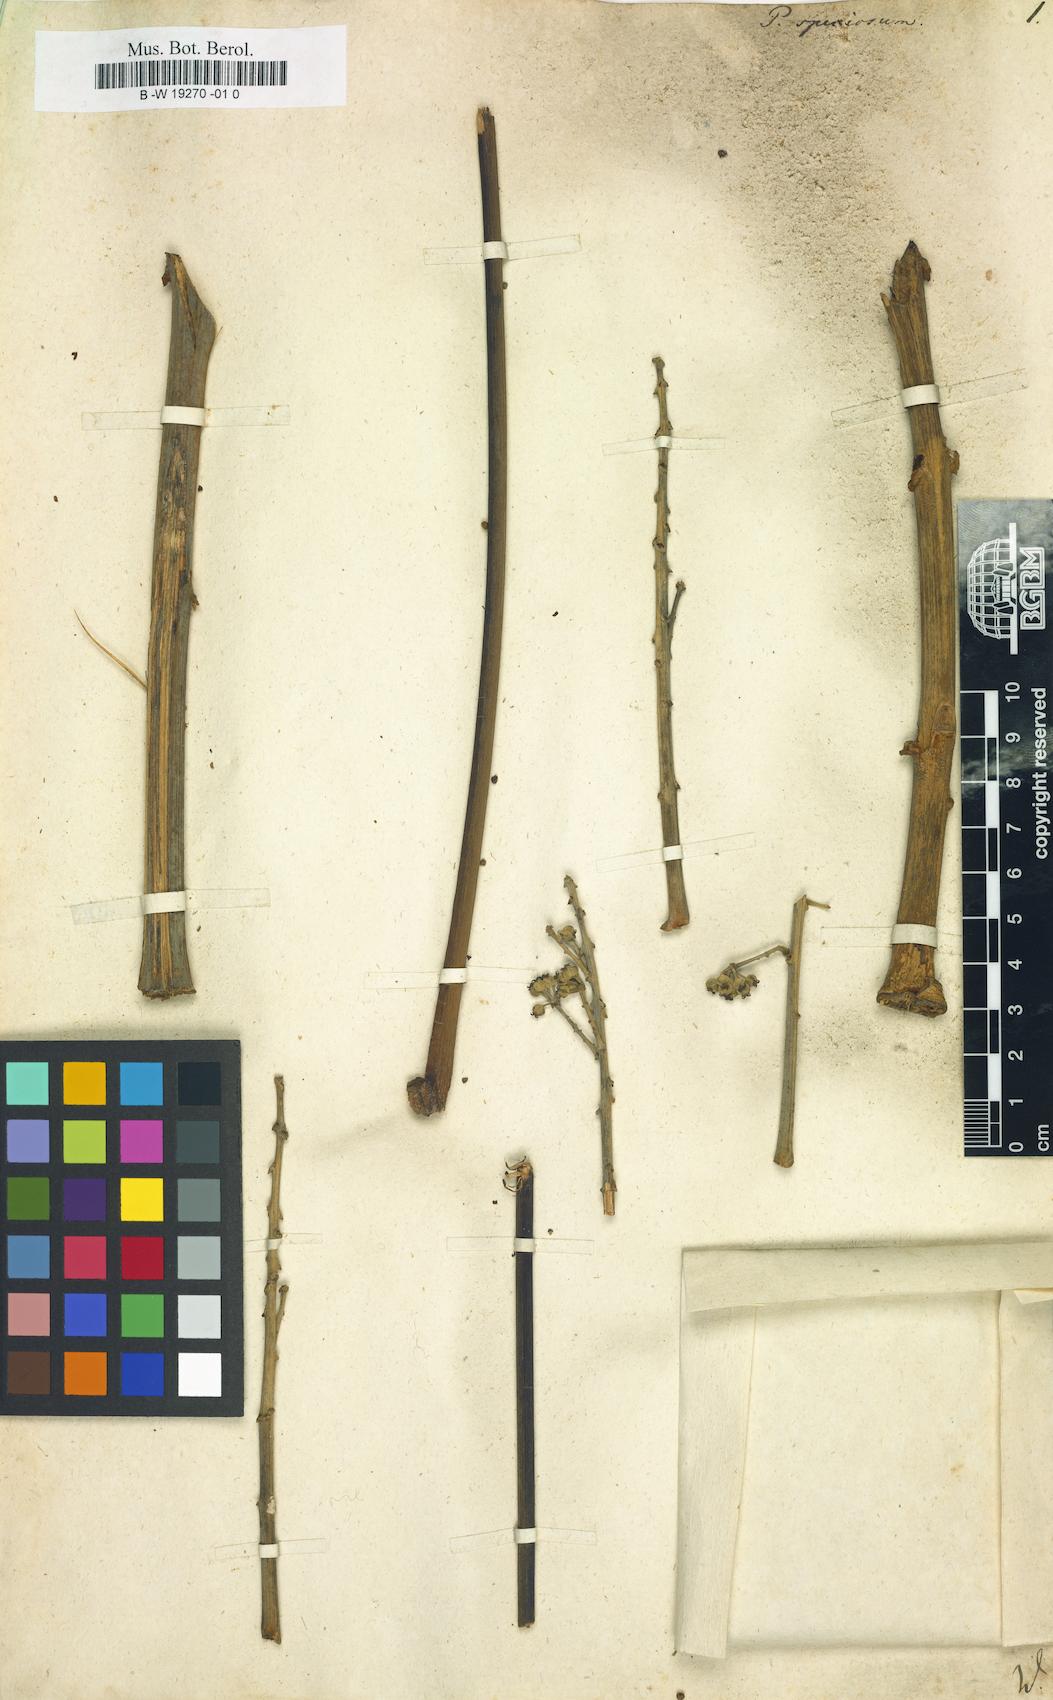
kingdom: Plantae
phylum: Tracheophyta
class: Magnoliopsida
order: Apiales
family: Araliaceae
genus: Didymopanax
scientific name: Didymopanax morototoni
